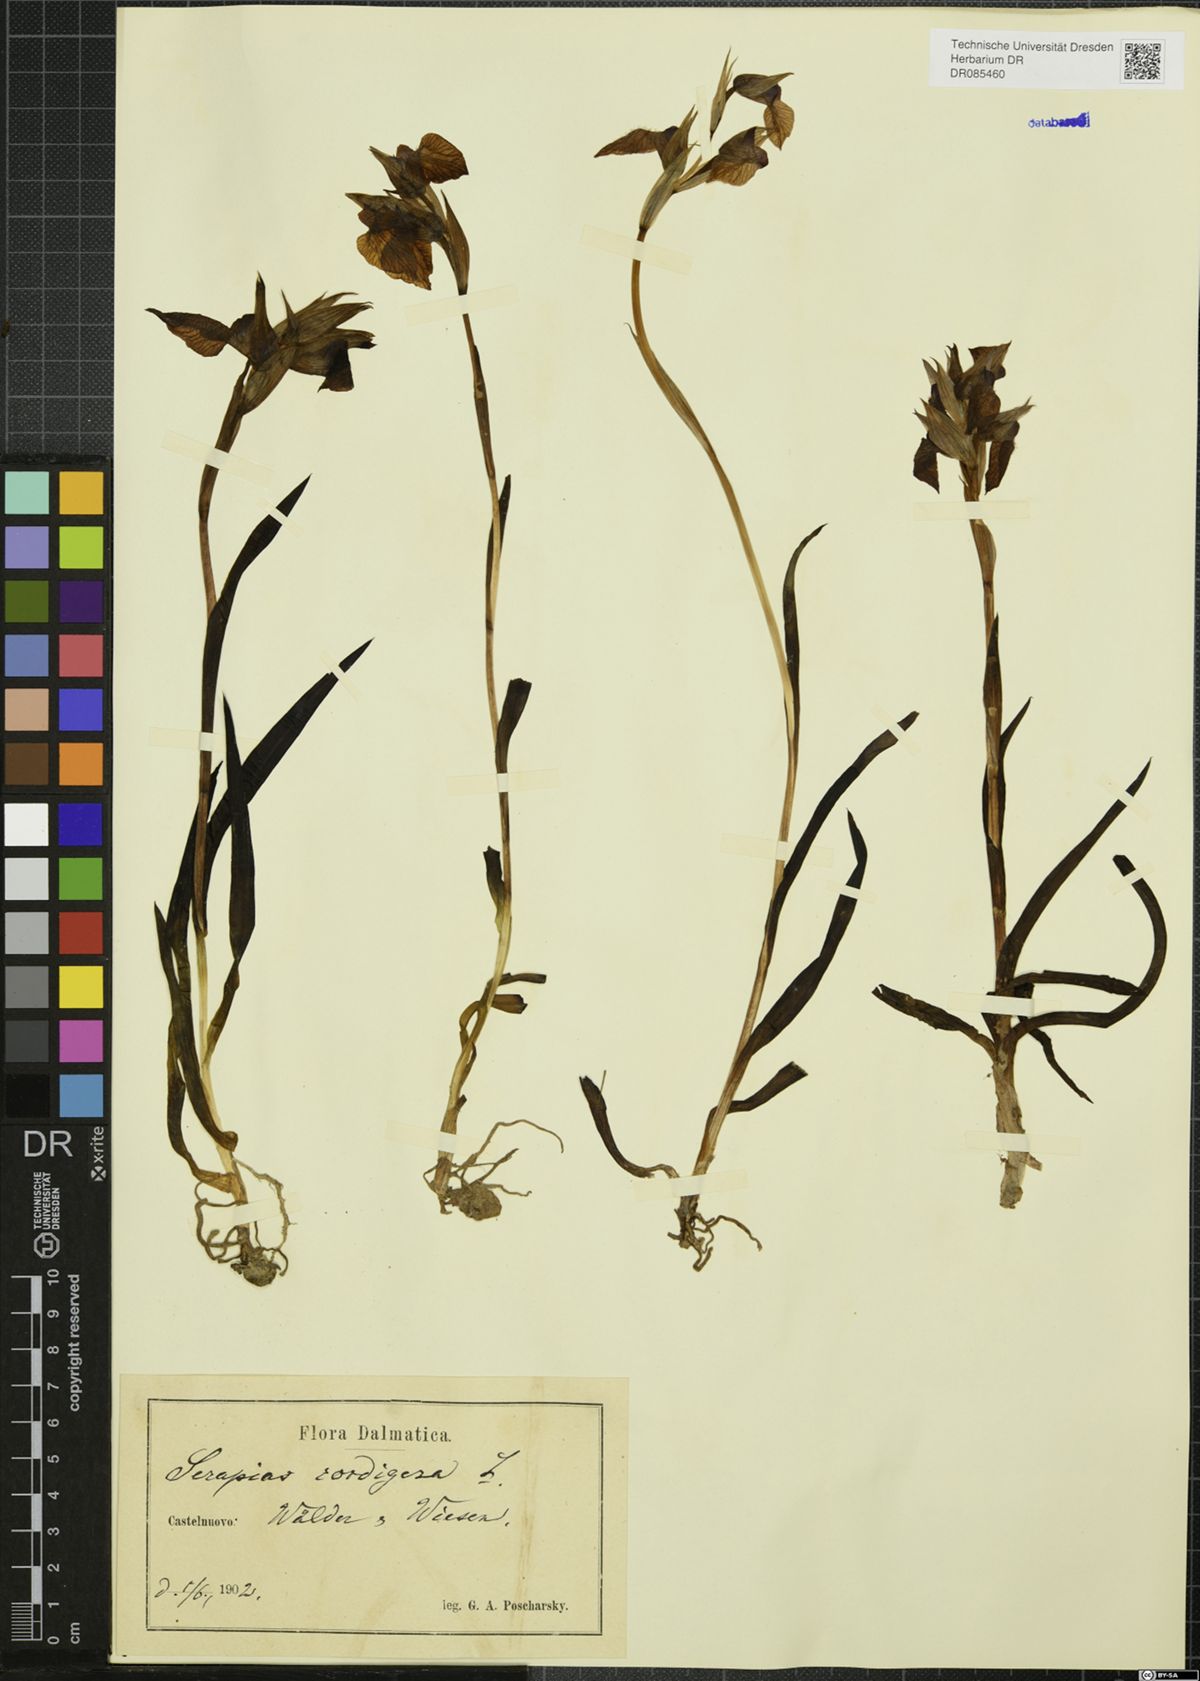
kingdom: Plantae
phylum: Tracheophyta
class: Liliopsida
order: Asparagales
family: Orchidaceae
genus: Serapias
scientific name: Serapias cordigera
